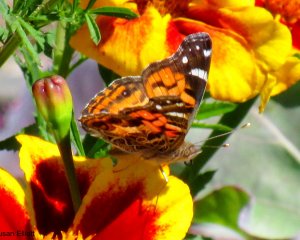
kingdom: Animalia
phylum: Arthropoda
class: Insecta
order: Lepidoptera
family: Nymphalidae
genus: Vanessa
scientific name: Vanessa cardui
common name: Painted Lady
